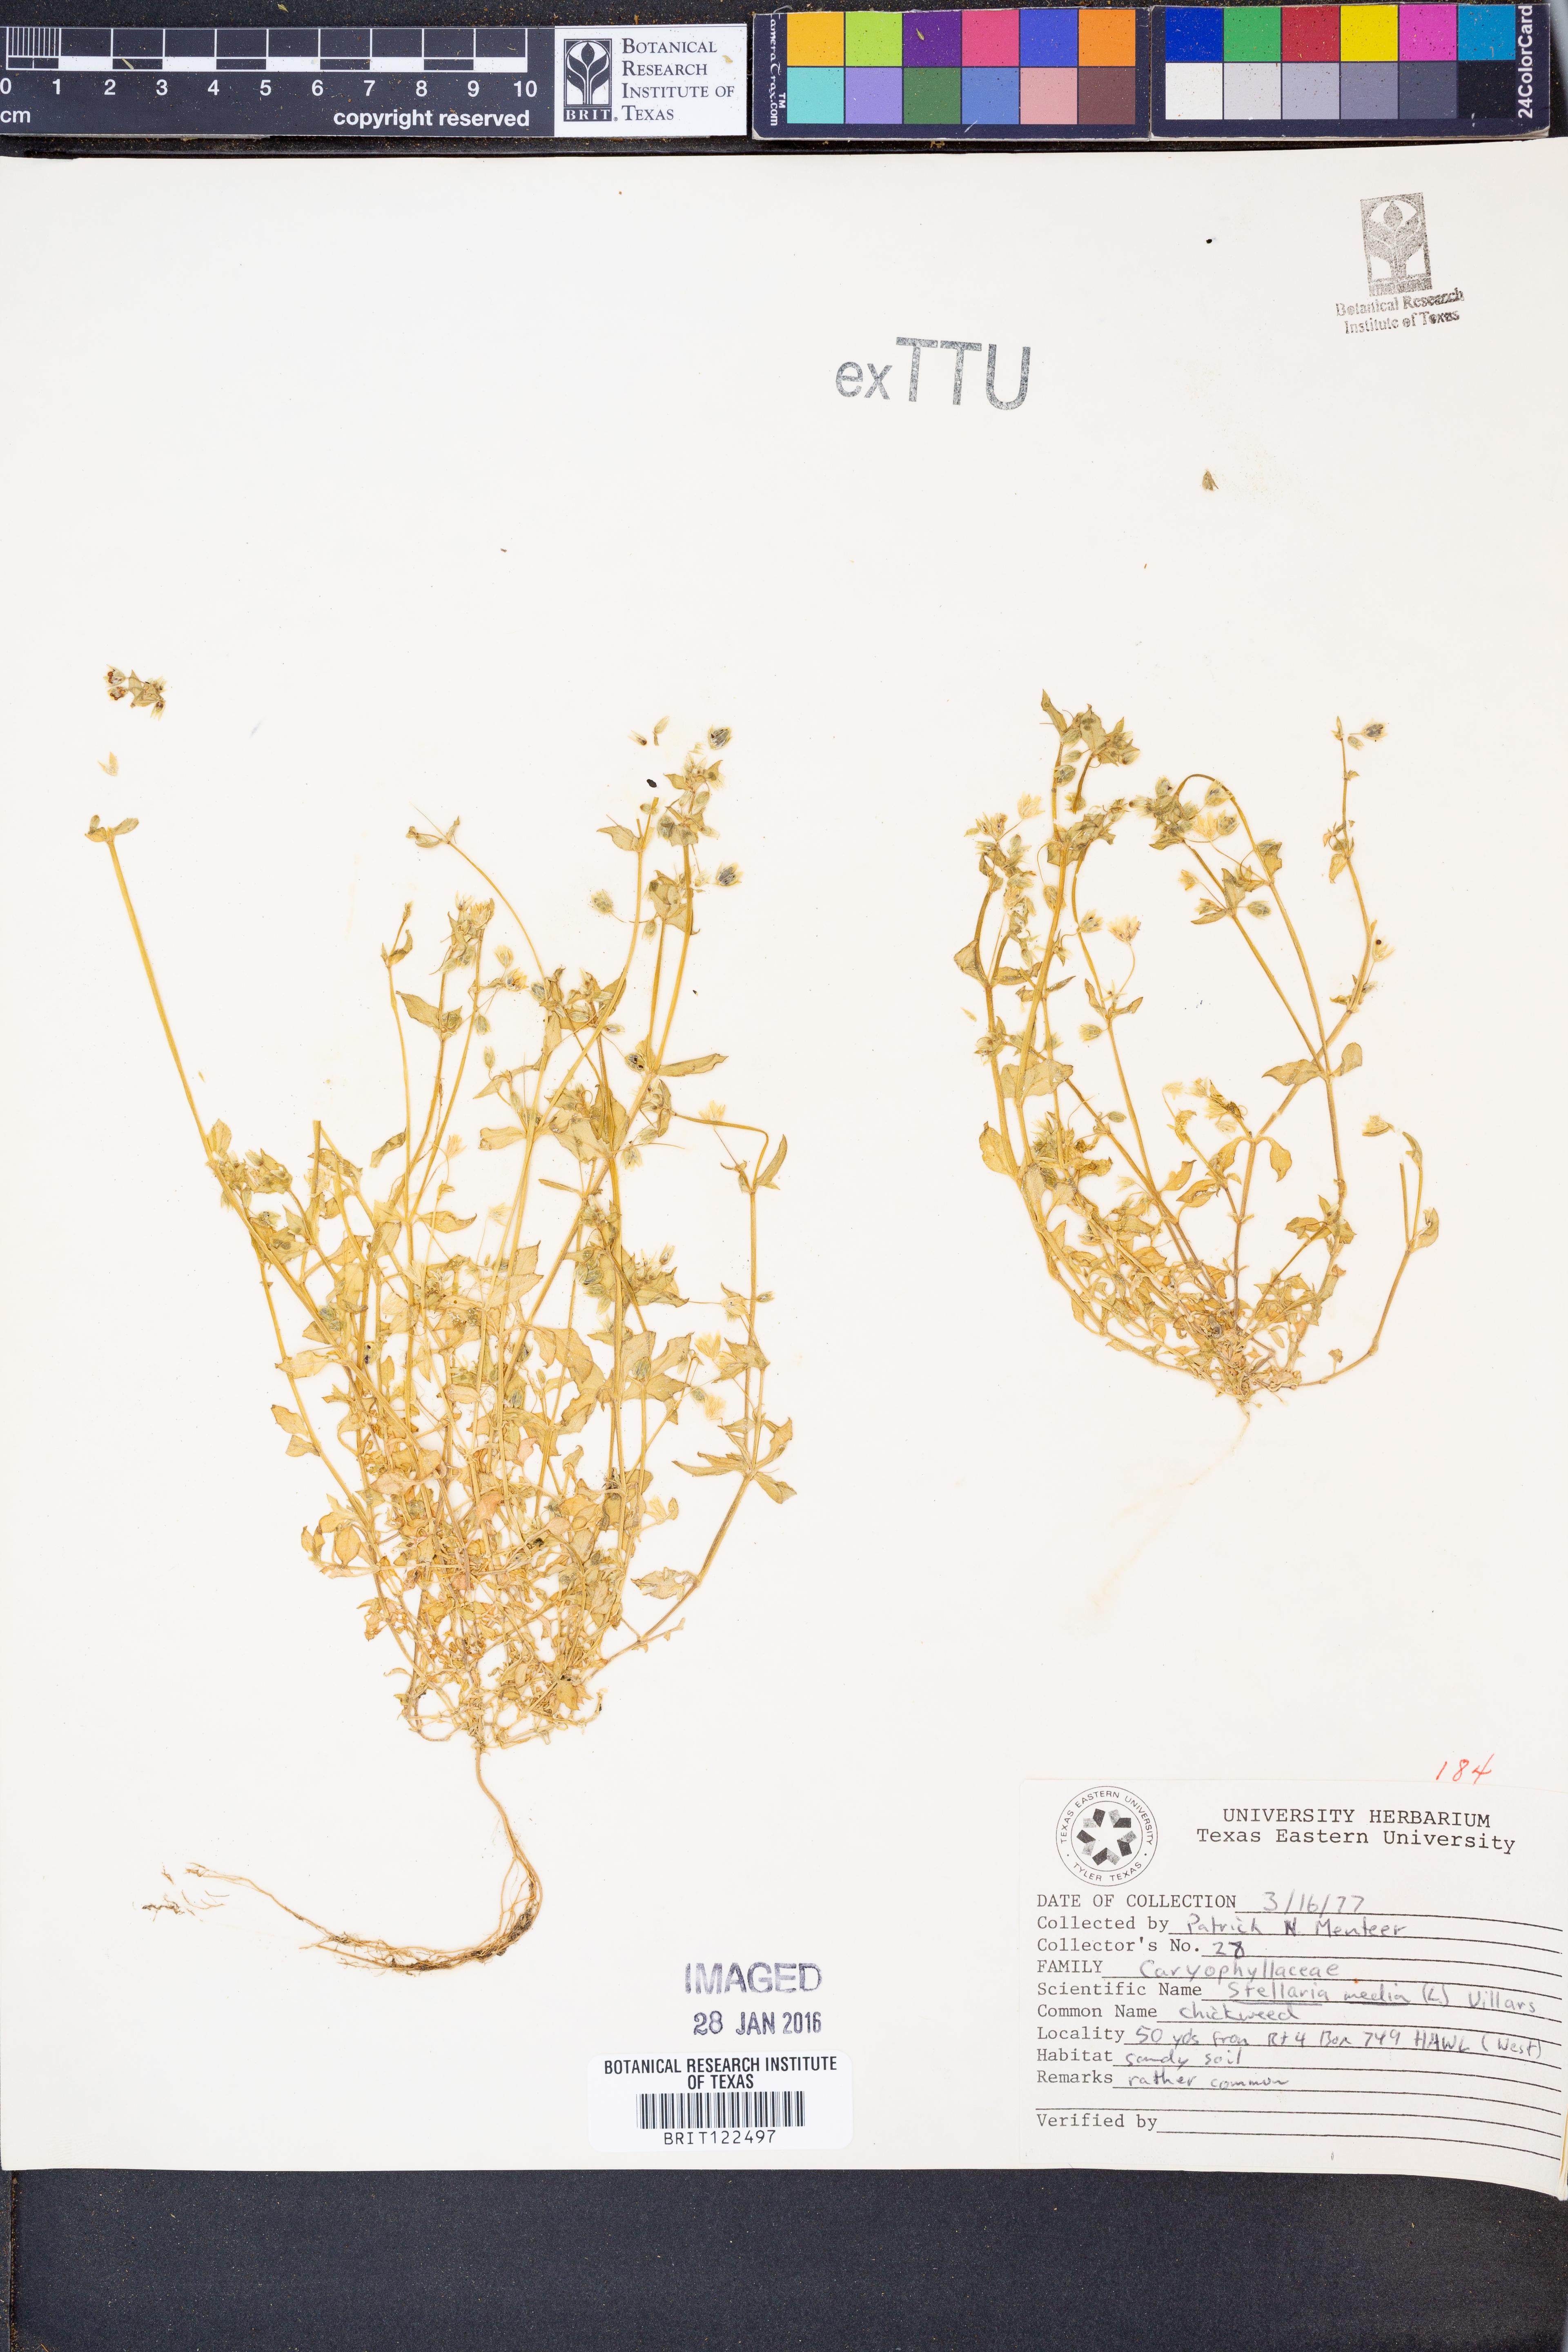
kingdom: Plantae
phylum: Tracheophyta
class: Magnoliopsida
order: Caryophyllales
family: Caryophyllaceae
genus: Stellaria
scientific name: Stellaria media
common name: Common chickweed
